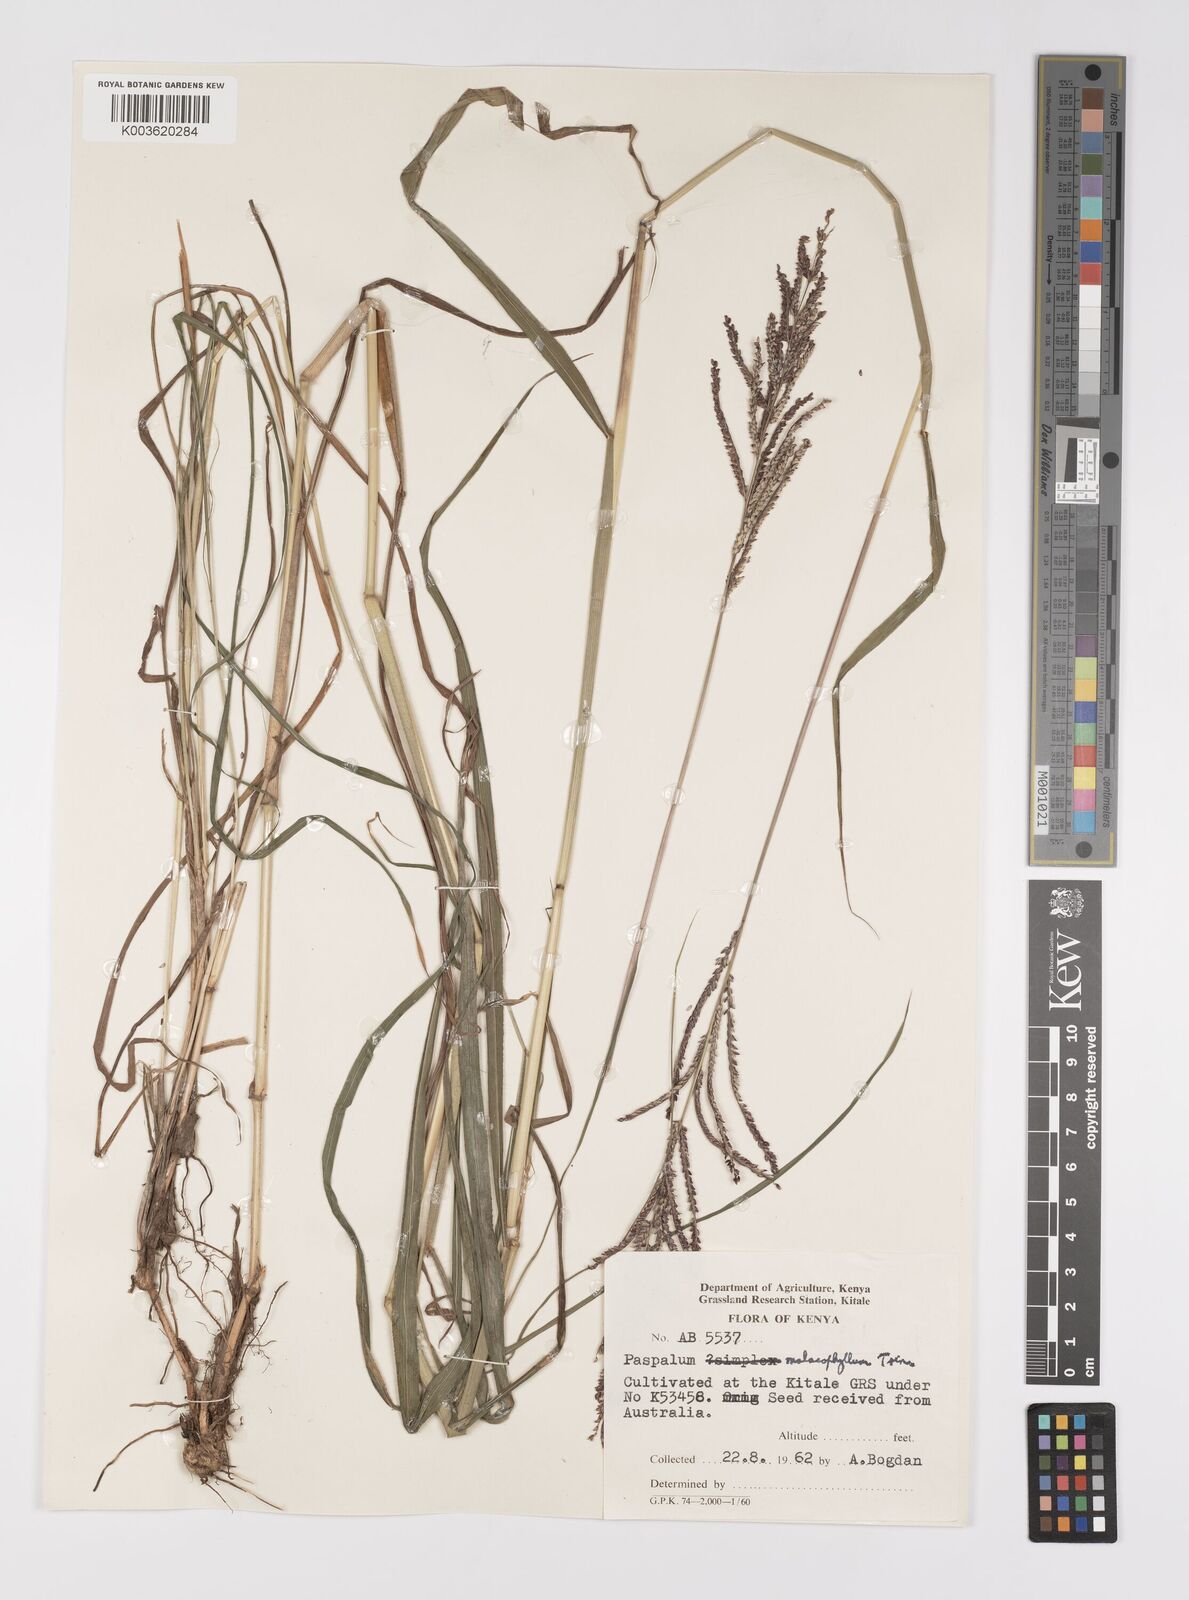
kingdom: Plantae
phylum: Tracheophyta
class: Liliopsida
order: Poales
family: Poaceae
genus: Paspalum
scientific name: Paspalum malacophyllum
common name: Ribbed paspalum
